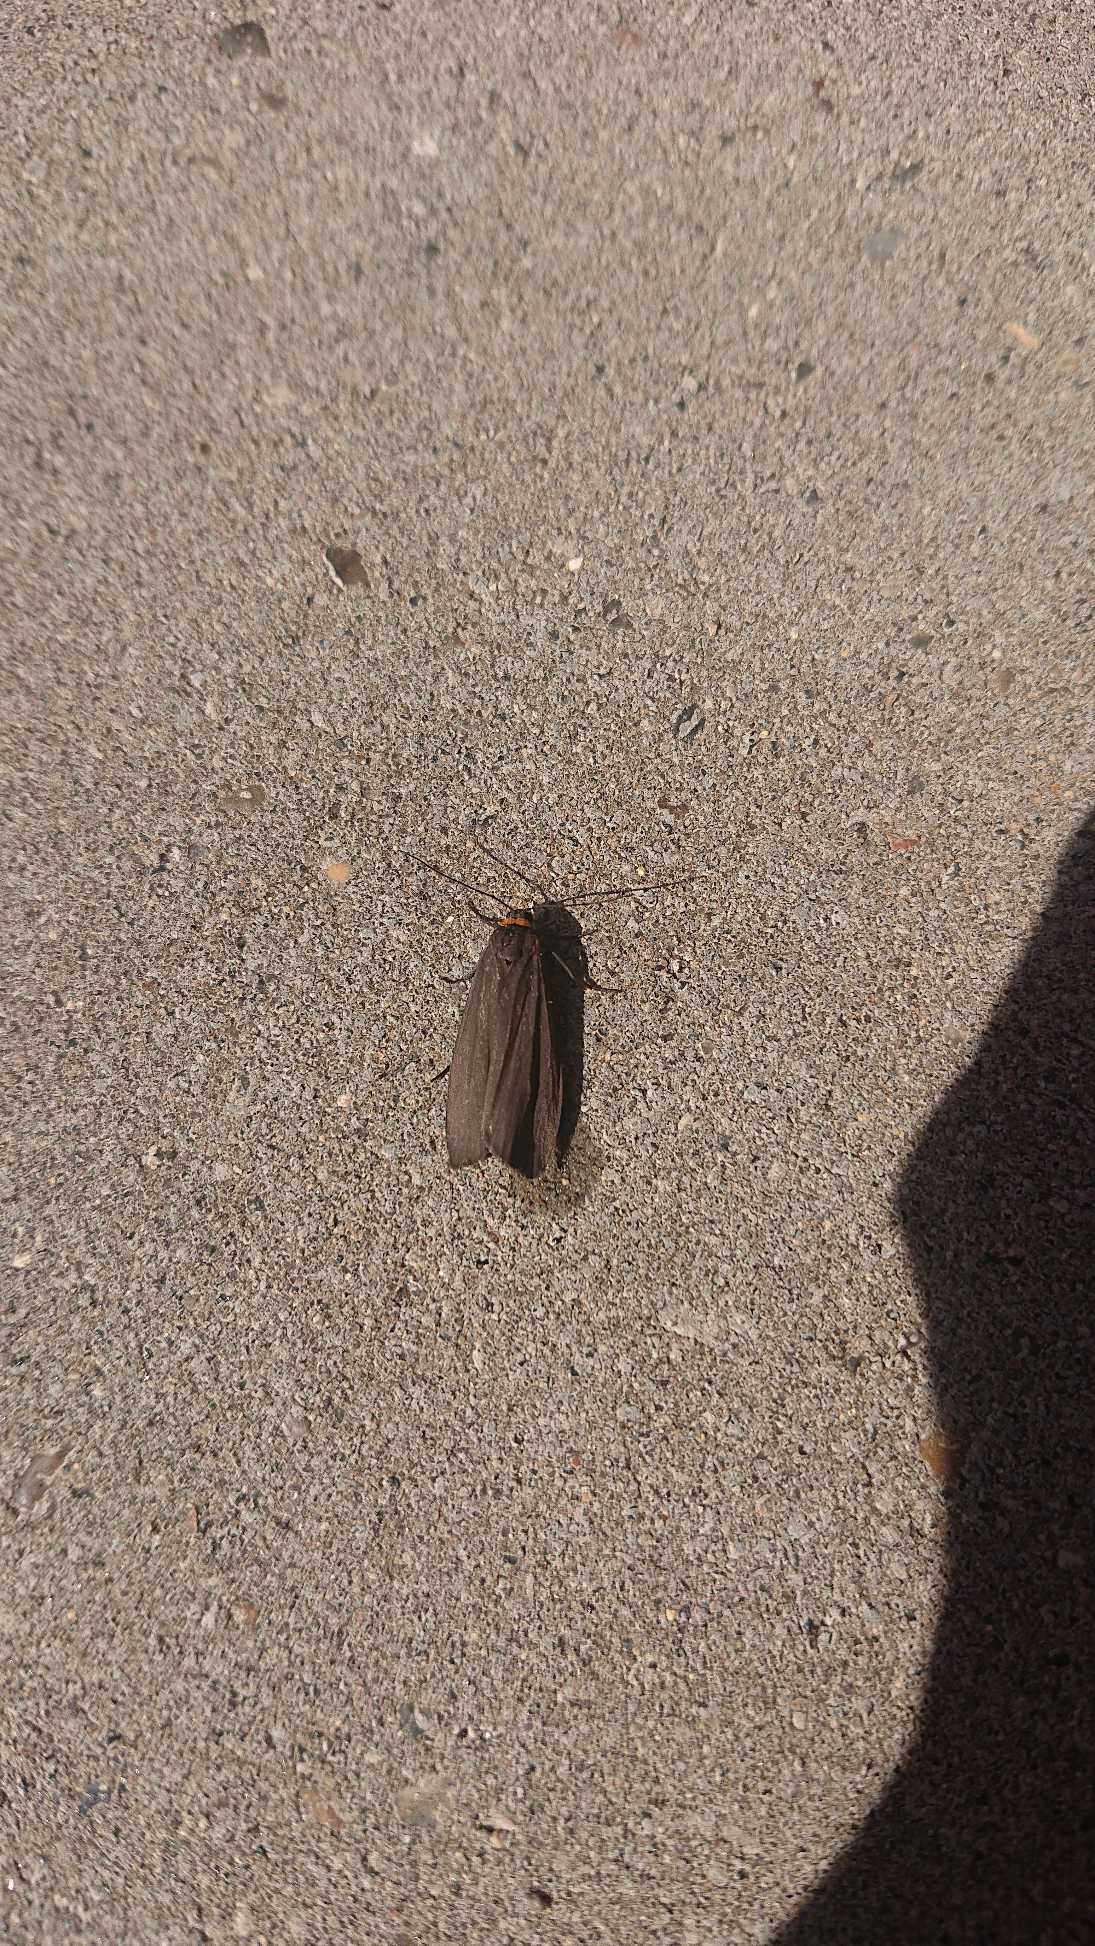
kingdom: Animalia
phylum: Arthropoda
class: Insecta
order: Lepidoptera
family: Erebidae
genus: Atolmis
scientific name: Atolmis rubricollis
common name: Blodnakke
